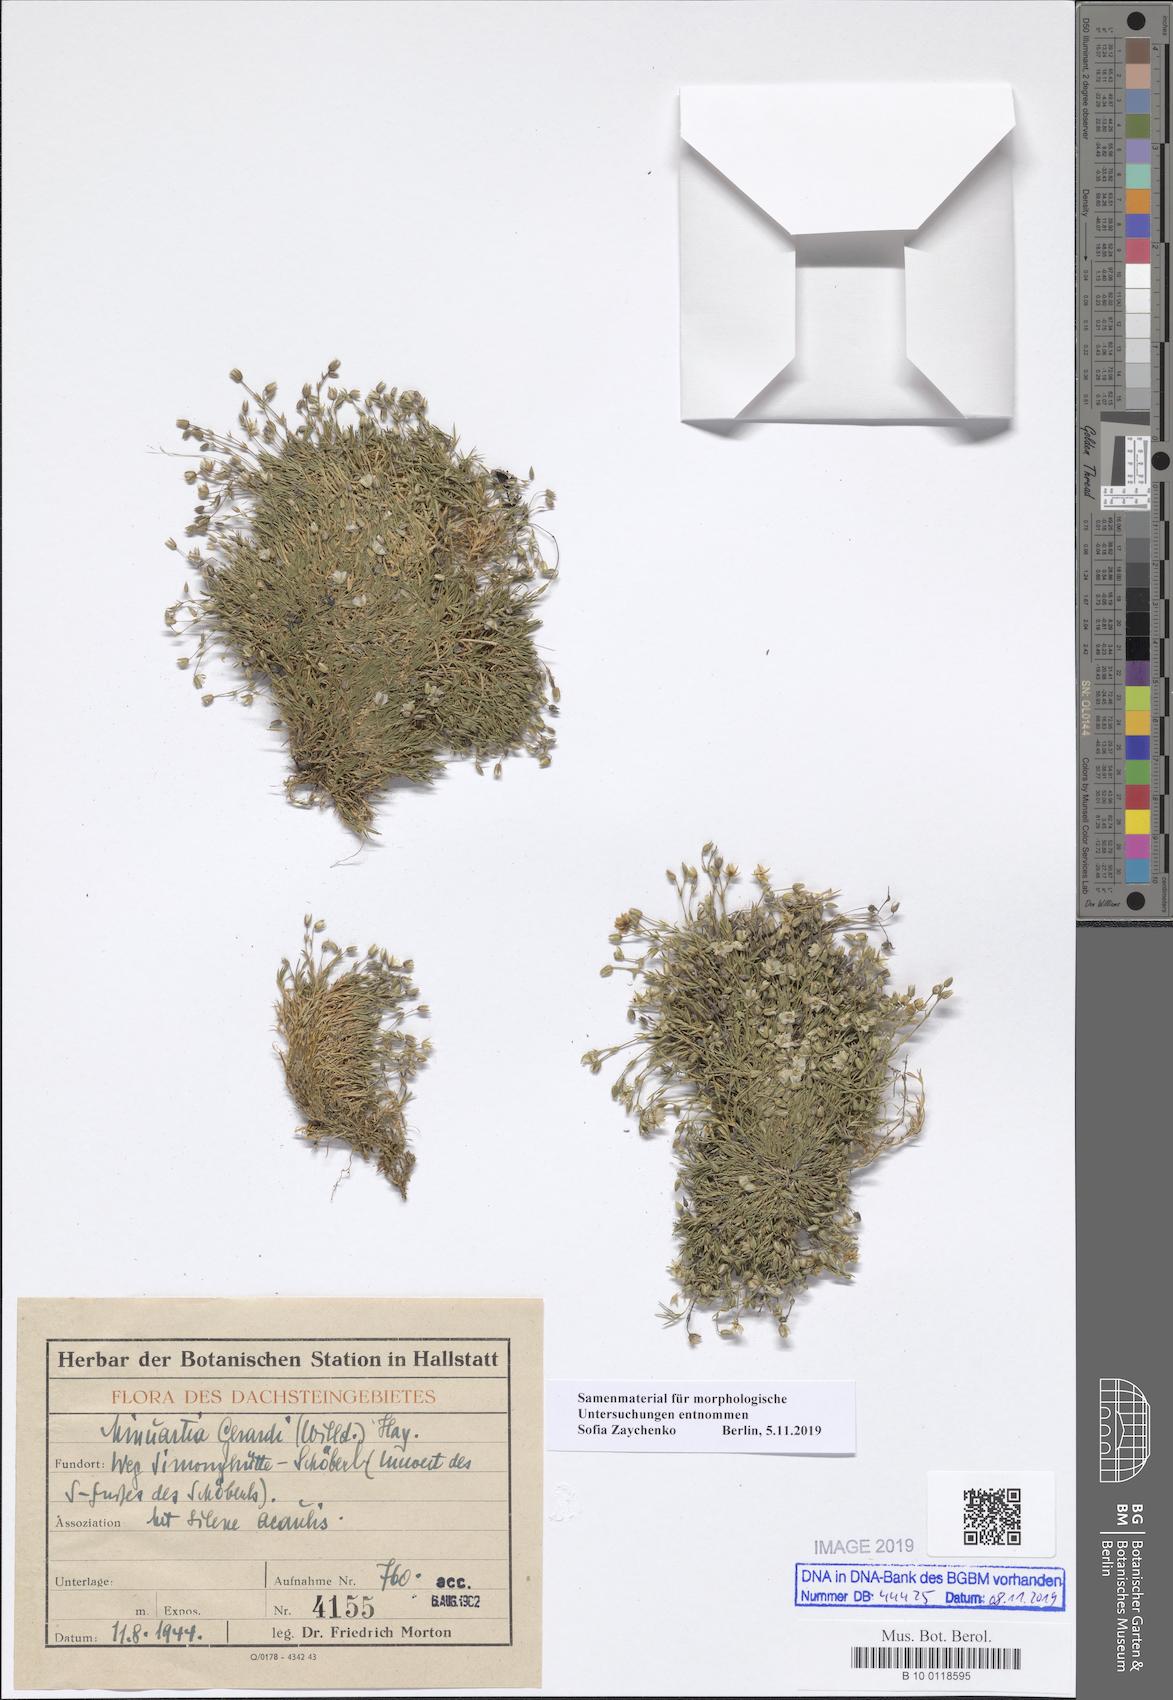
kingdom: Plantae
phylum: Tracheophyta
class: Magnoliopsida
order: Caryophyllales
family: Caryophyllaceae
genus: Sabulina
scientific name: Sabulina verna
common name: Spring sandwort
